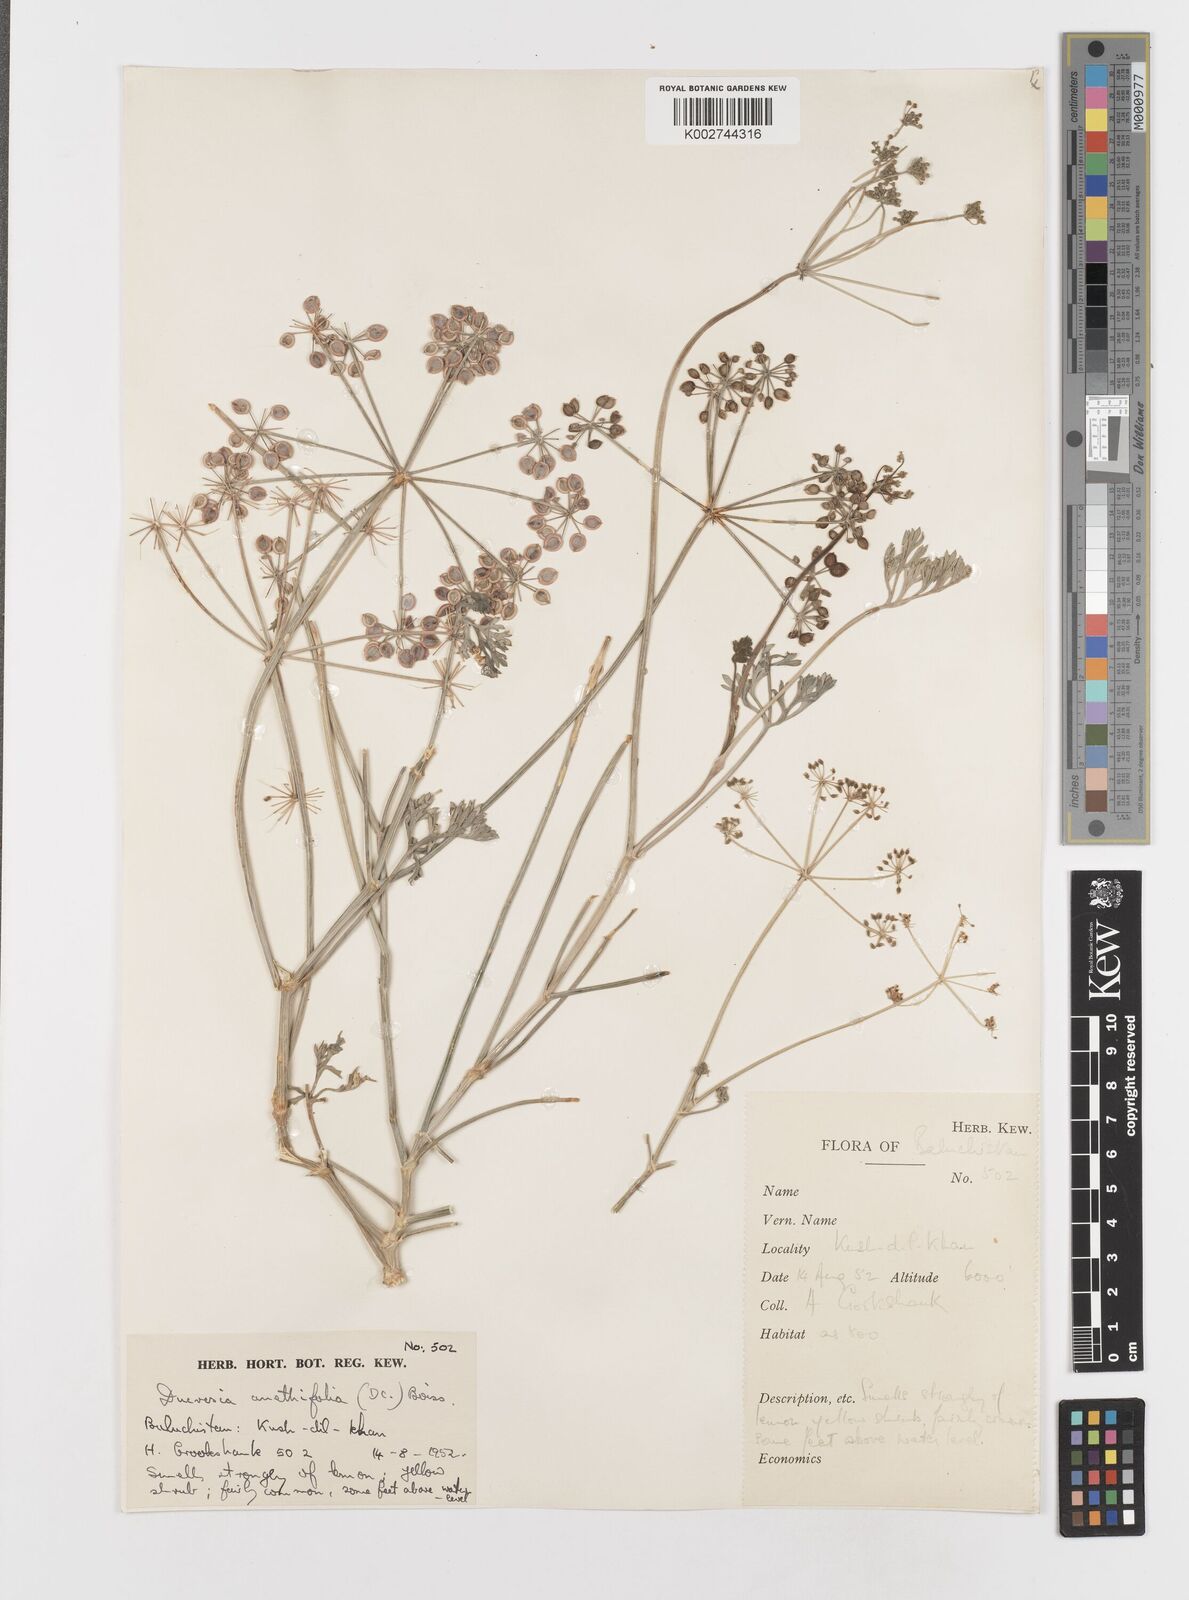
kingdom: Plantae
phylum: Tracheophyta
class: Magnoliopsida
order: Apiales
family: Apiaceae
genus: Ducrosia
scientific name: Ducrosia anethifolia
